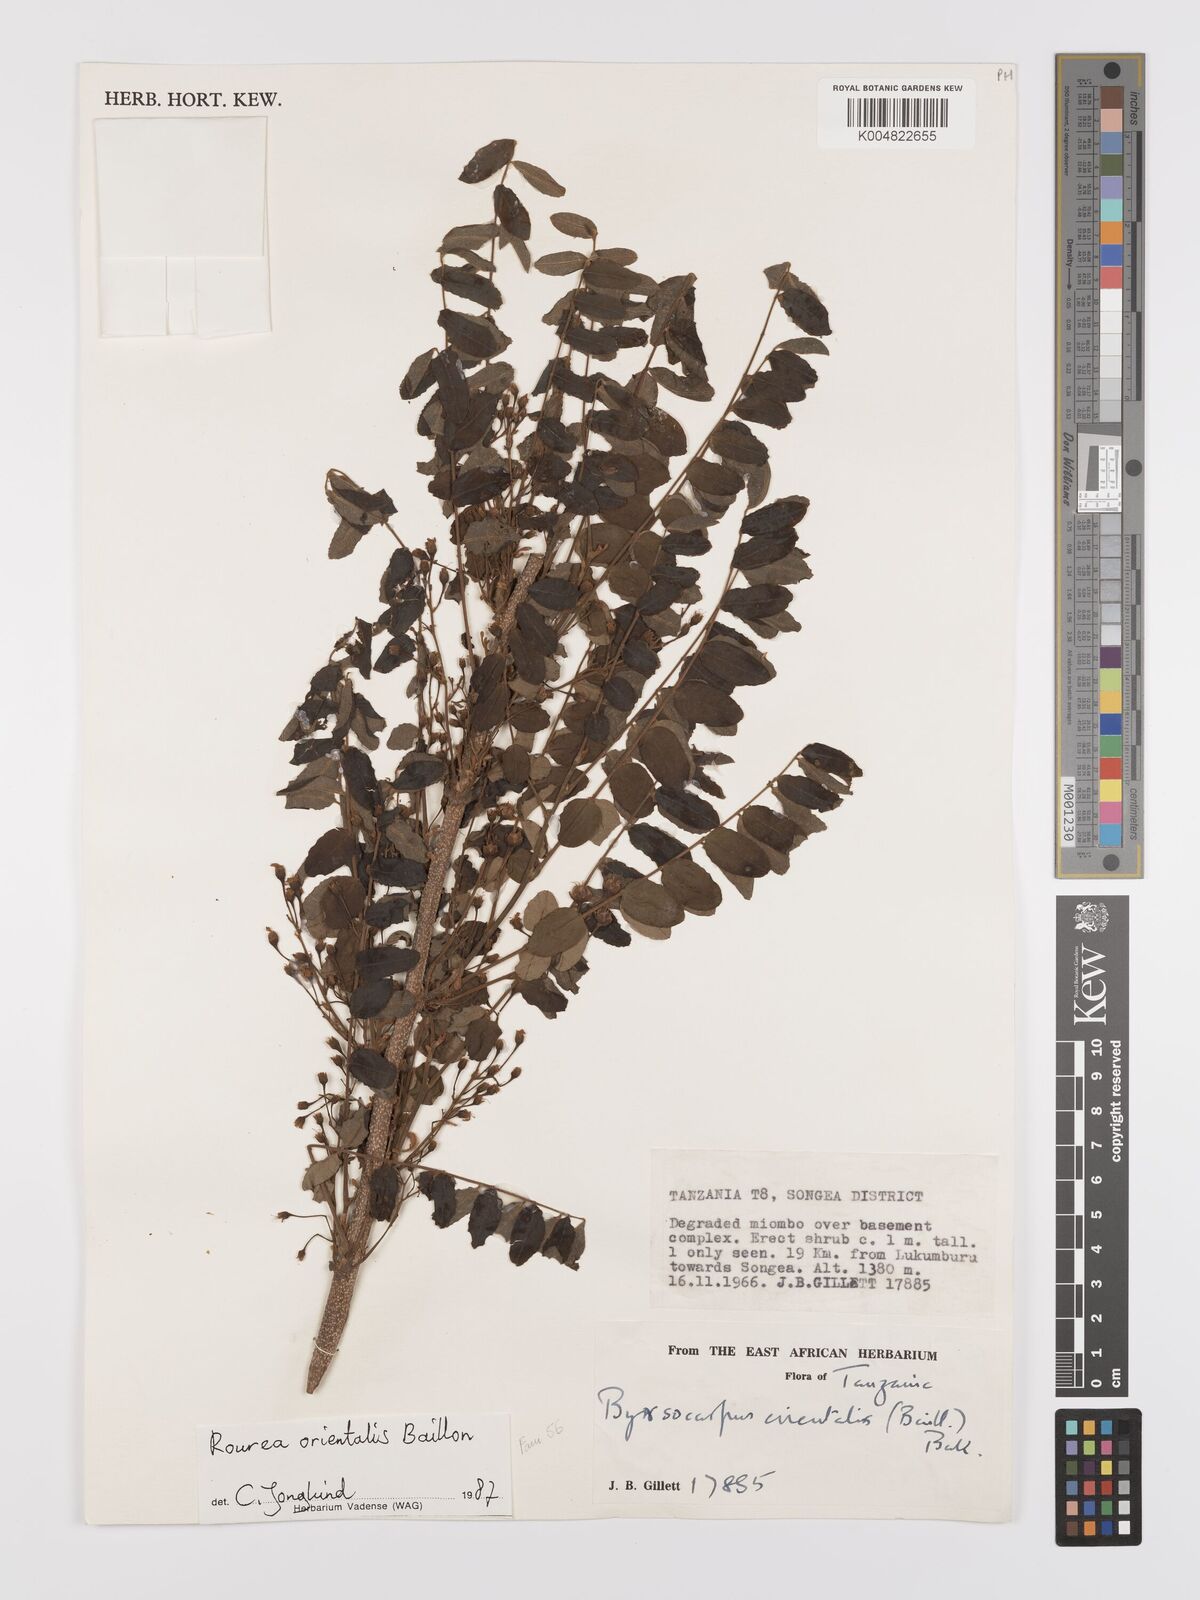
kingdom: Plantae
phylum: Tracheophyta
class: Magnoliopsida
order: Oxalidales
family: Connaraceae
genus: Rourea
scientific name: Rourea orientalis
